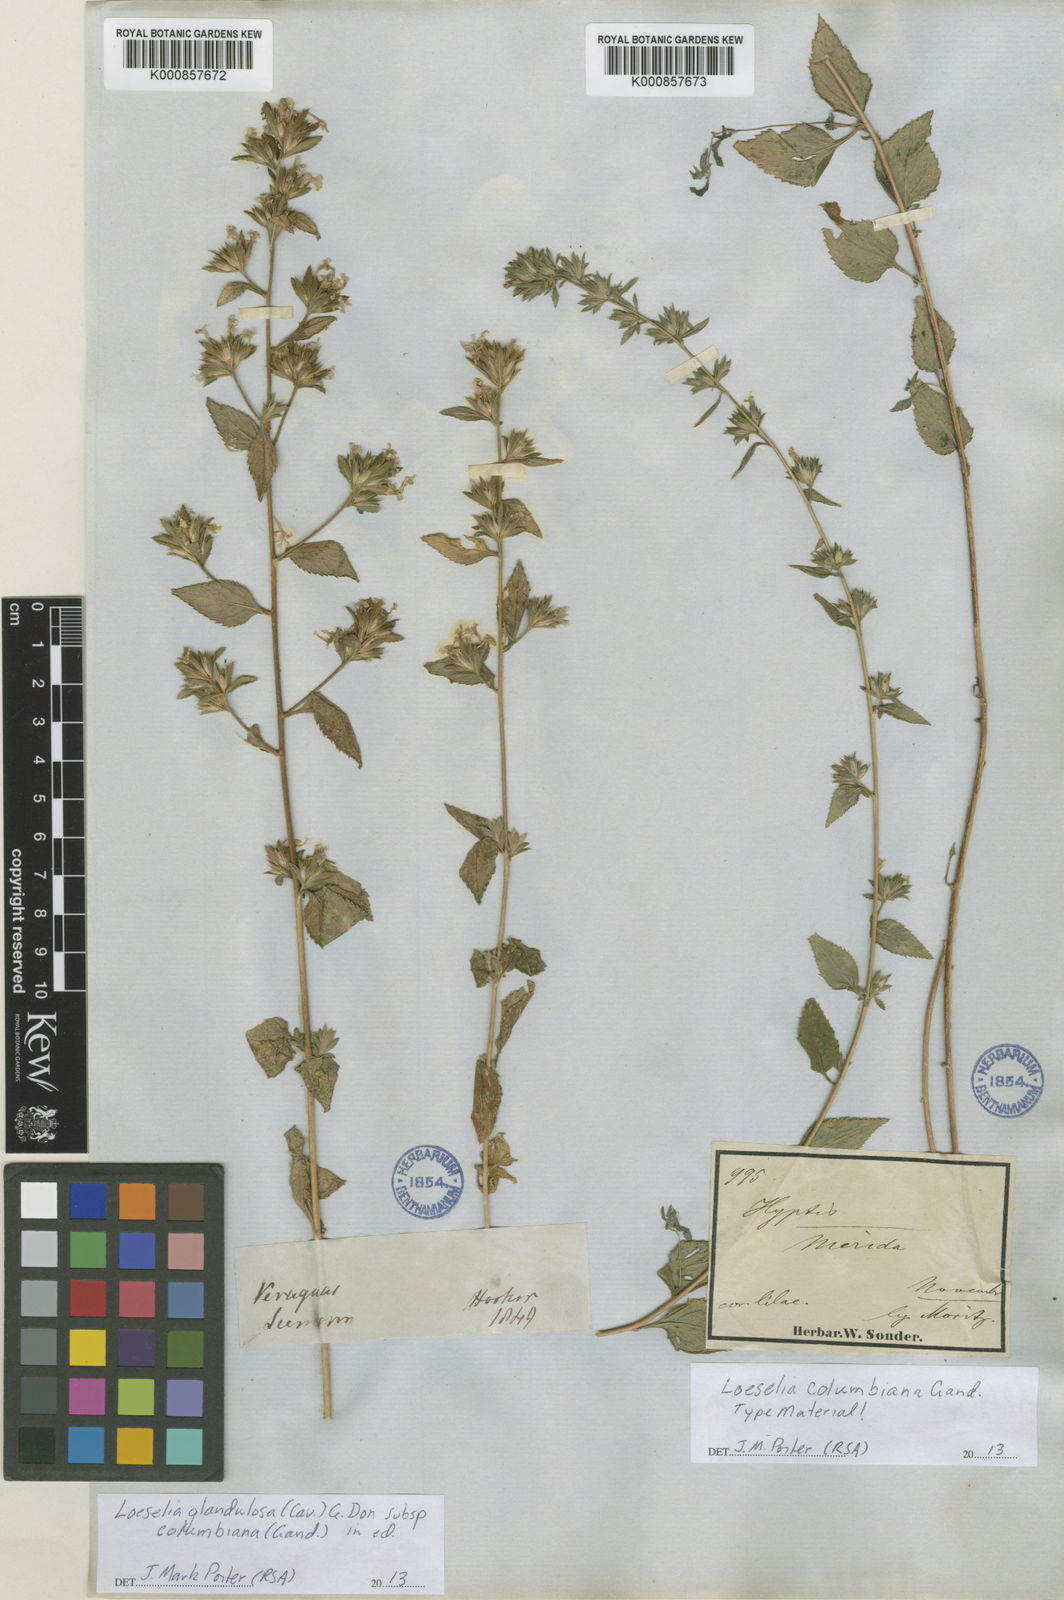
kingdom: Plantae
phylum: Tracheophyta
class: Magnoliopsida
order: Ericales
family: Polemoniaceae
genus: Loeselia
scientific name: Loeselia glandulosa
